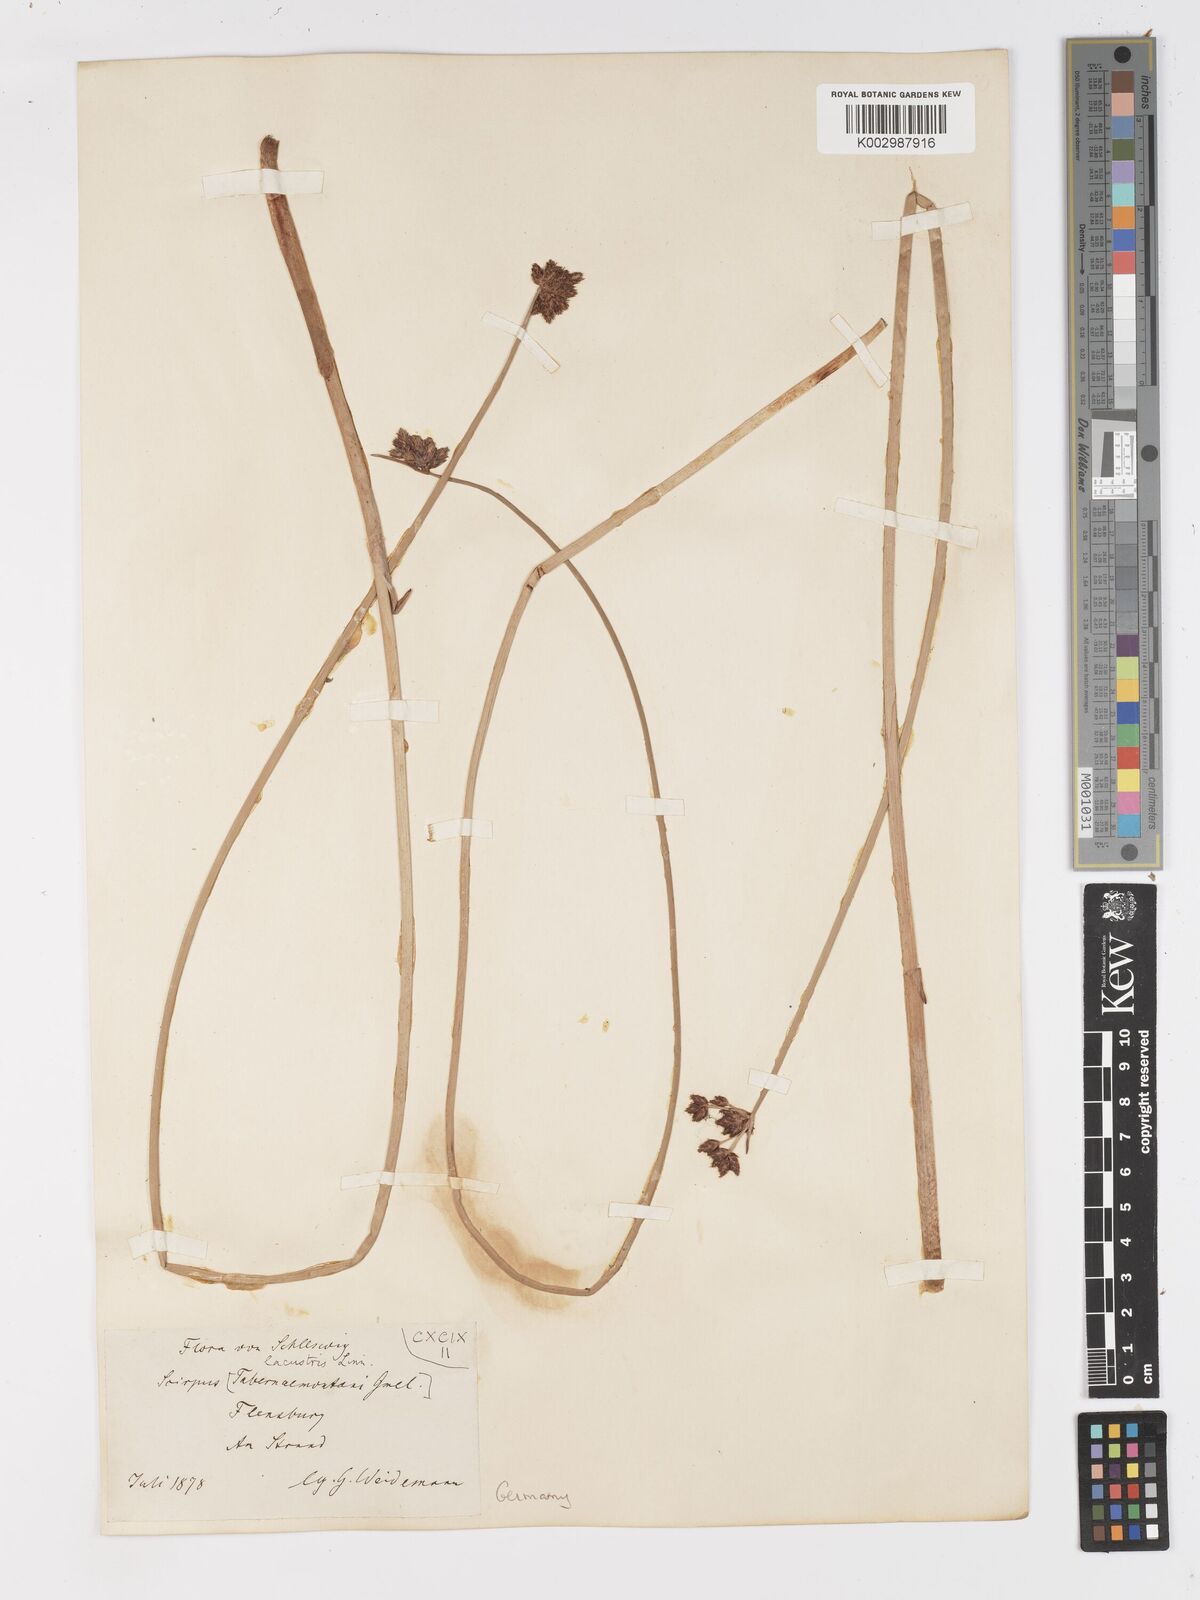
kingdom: Plantae
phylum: Tracheophyta
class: Liliopsida
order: Poales
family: Cyperaceae
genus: Schoenoplectus
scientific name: Schoenoplectus tabernaemontani
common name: Grey club-rush
